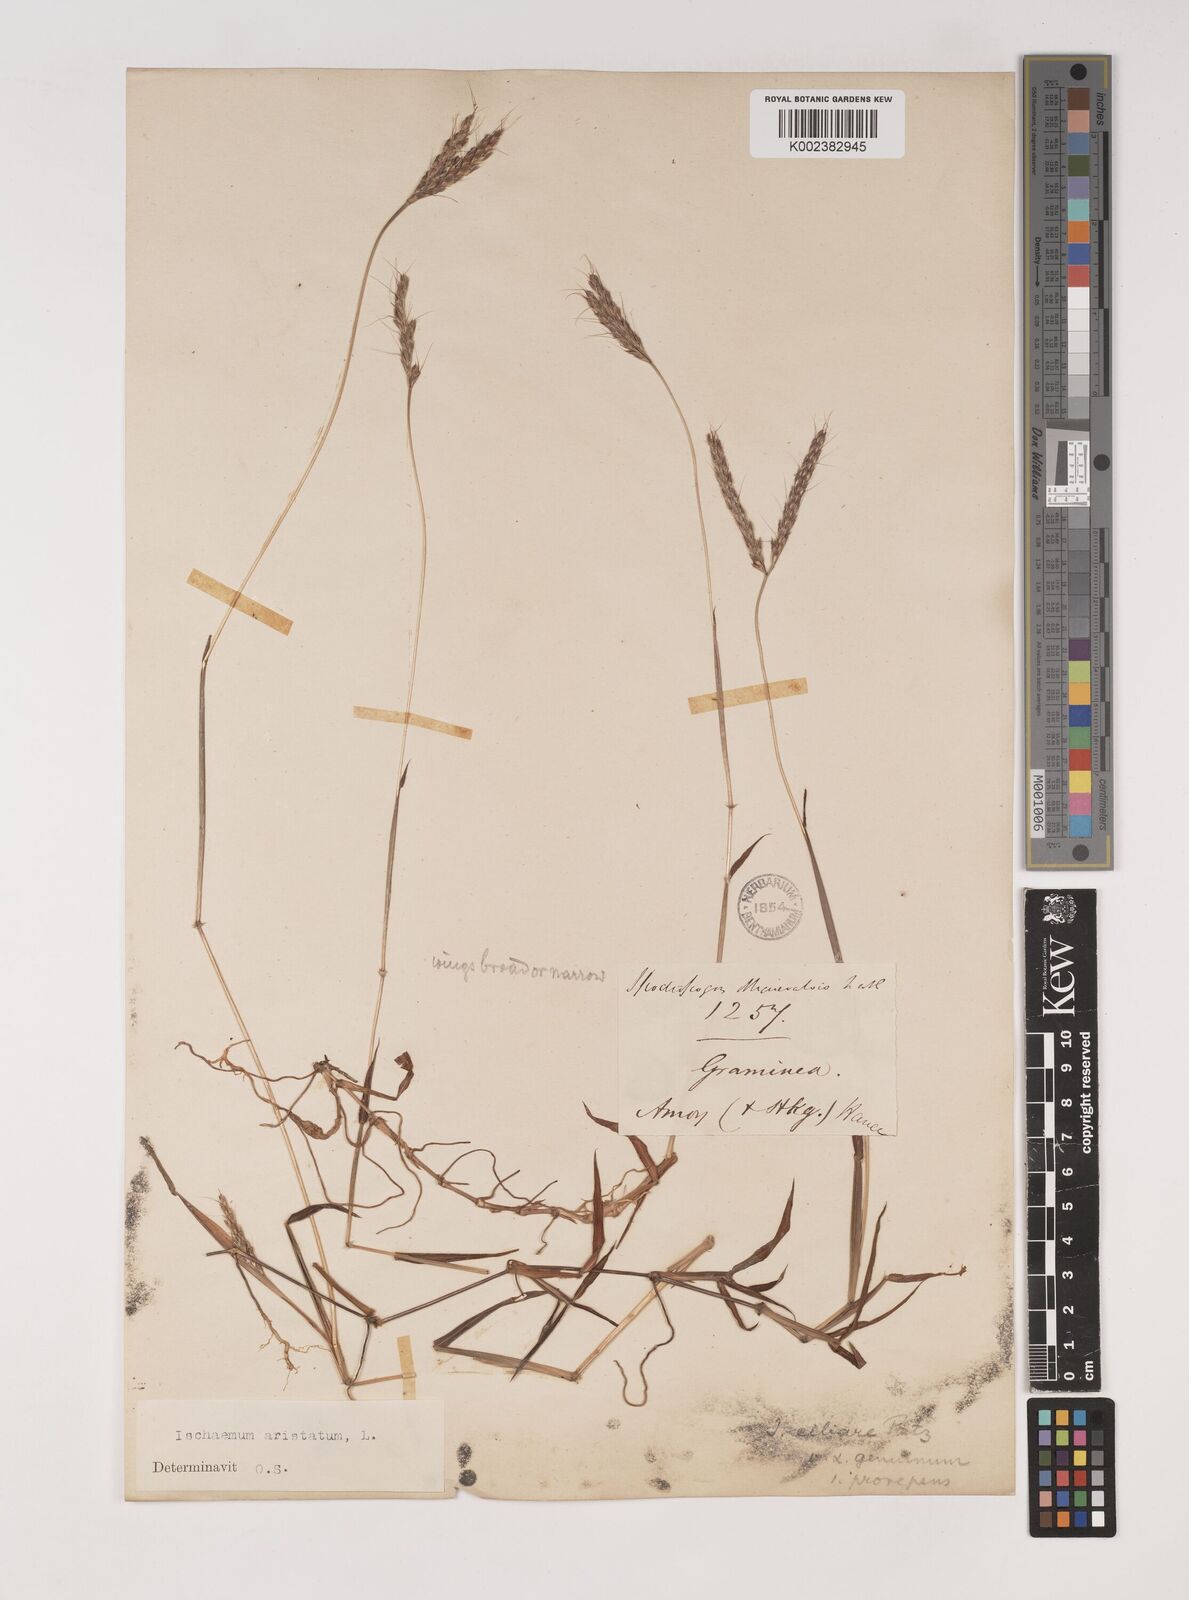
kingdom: Plantae
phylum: Tracheophyta
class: Liliopsida
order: Poales
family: Poaceae
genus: Polytrias
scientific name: Polytrias indica
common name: Indian murainagrass
